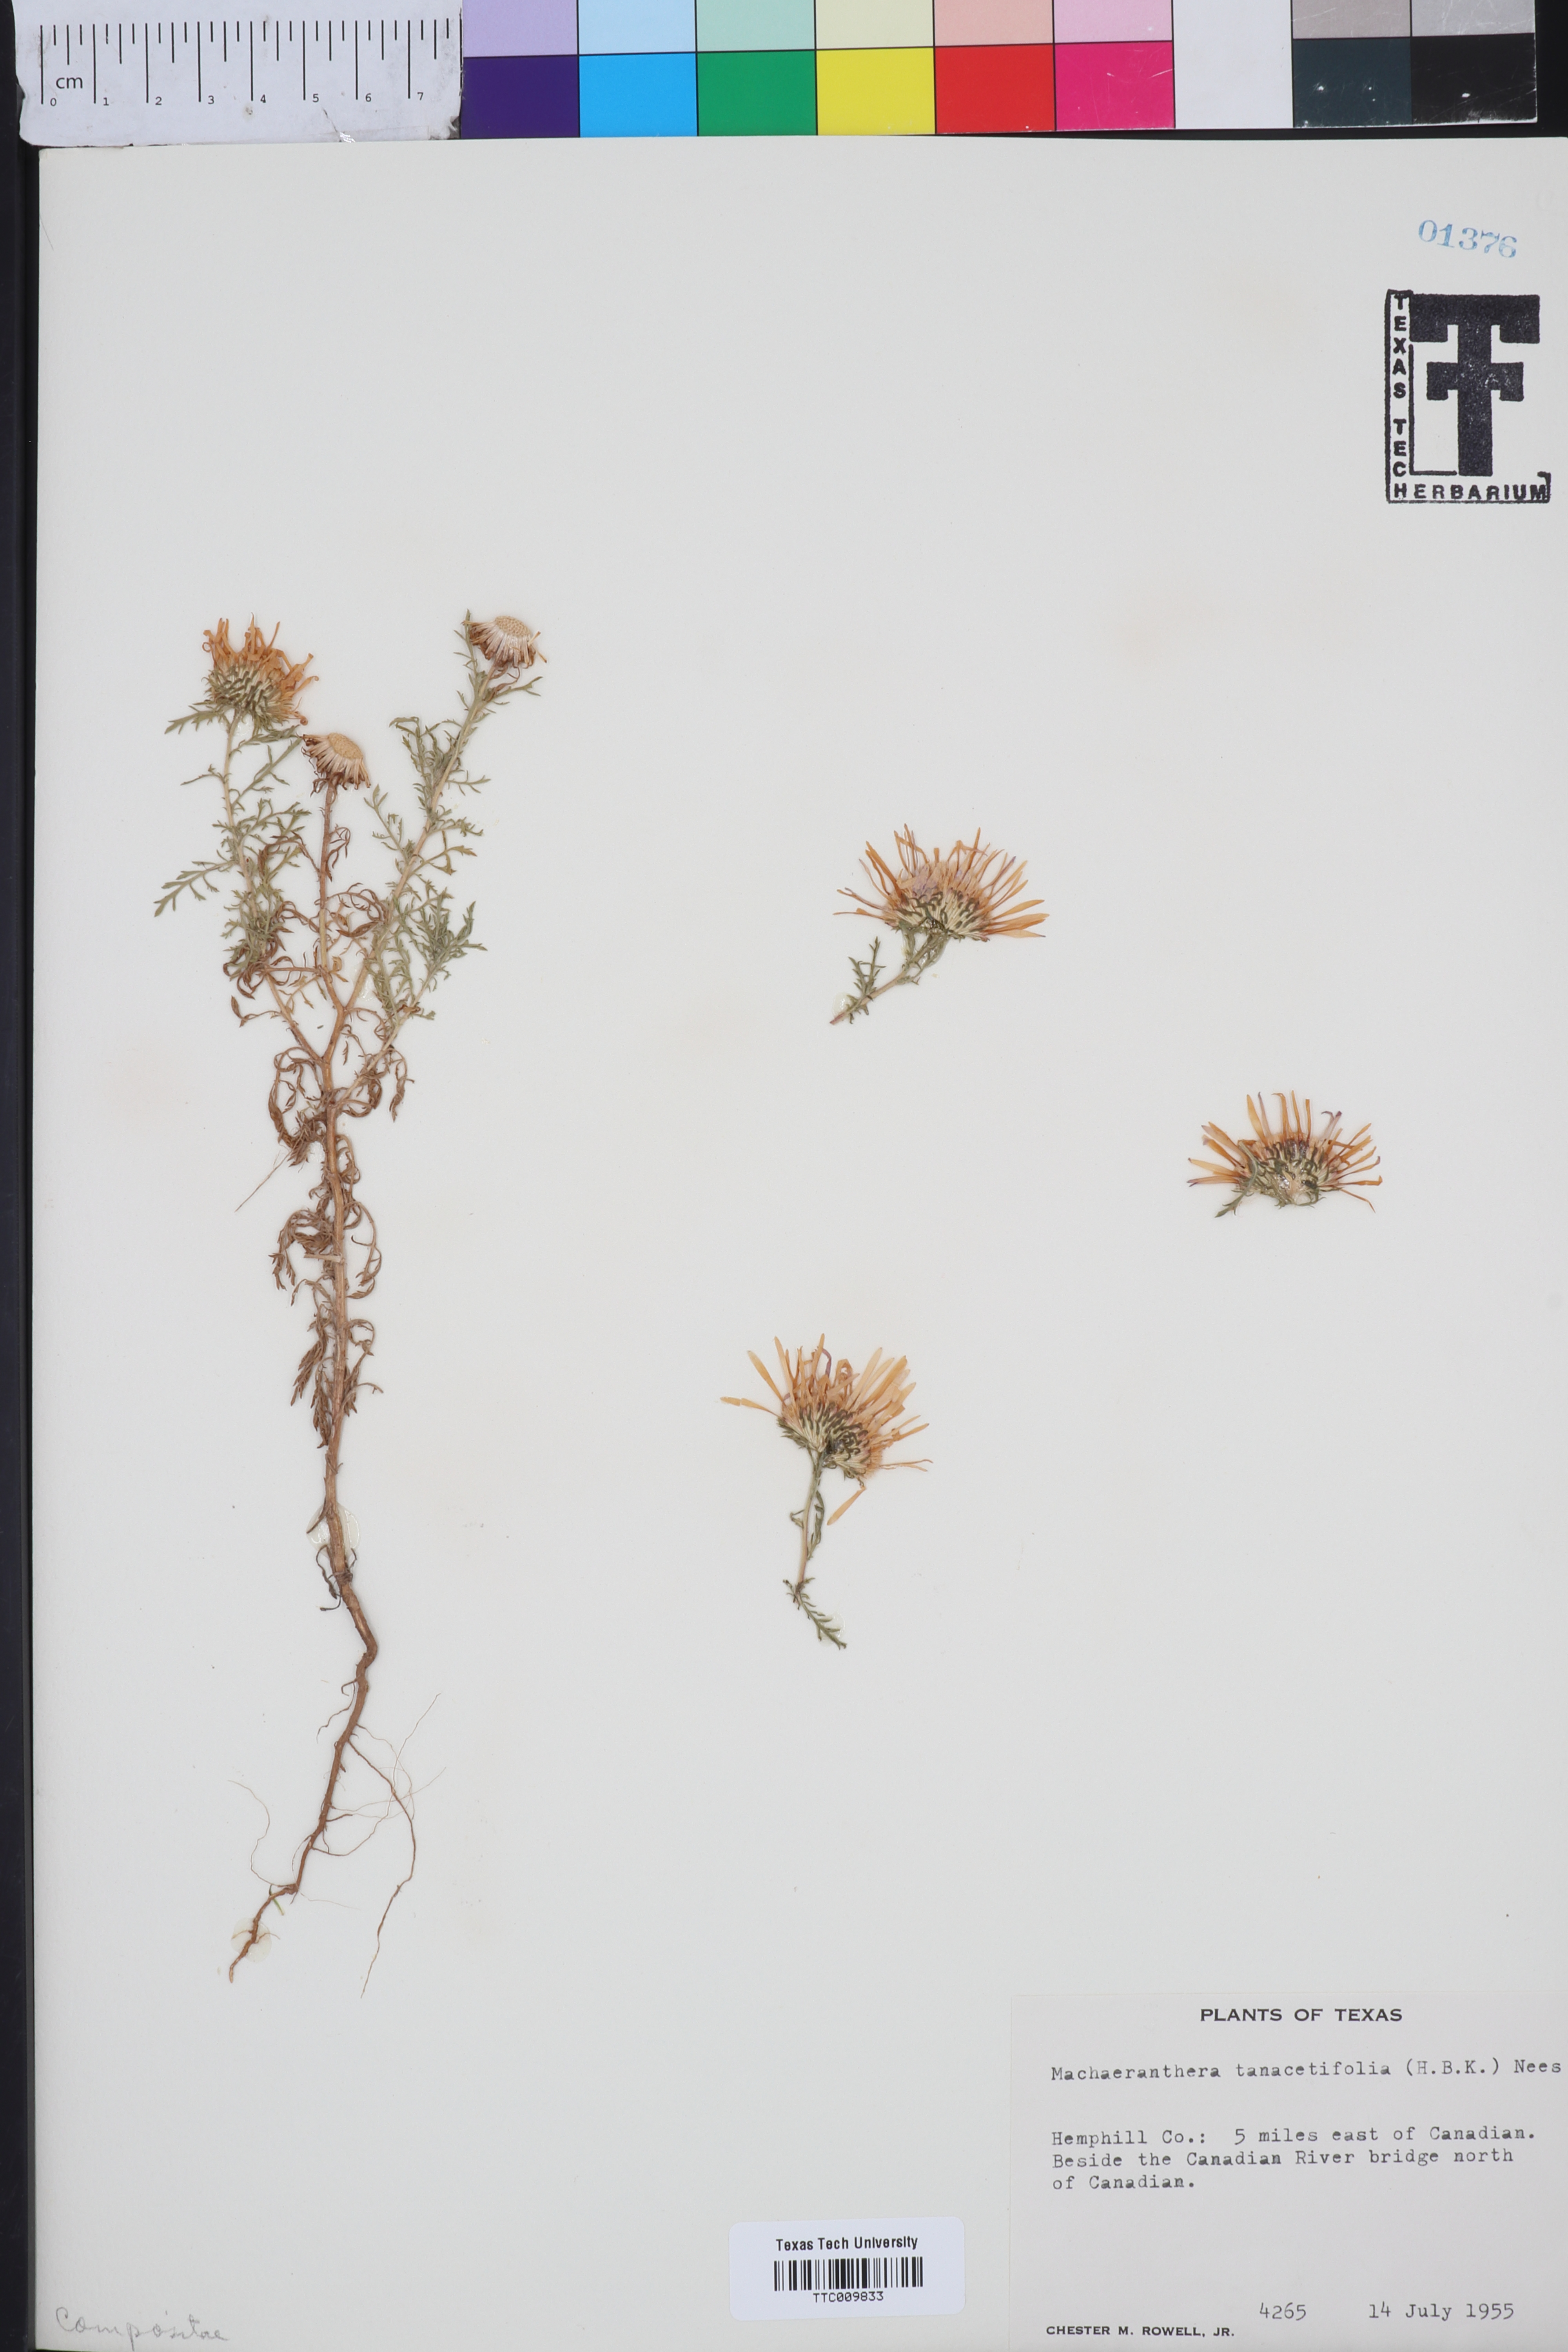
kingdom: Plantae
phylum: Tracheophyta
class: Magnoliopsida
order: Asterales
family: Asteraceae
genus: Machaeranthera
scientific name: Machaeranthera tanacetifolia
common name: Tansy-aster
